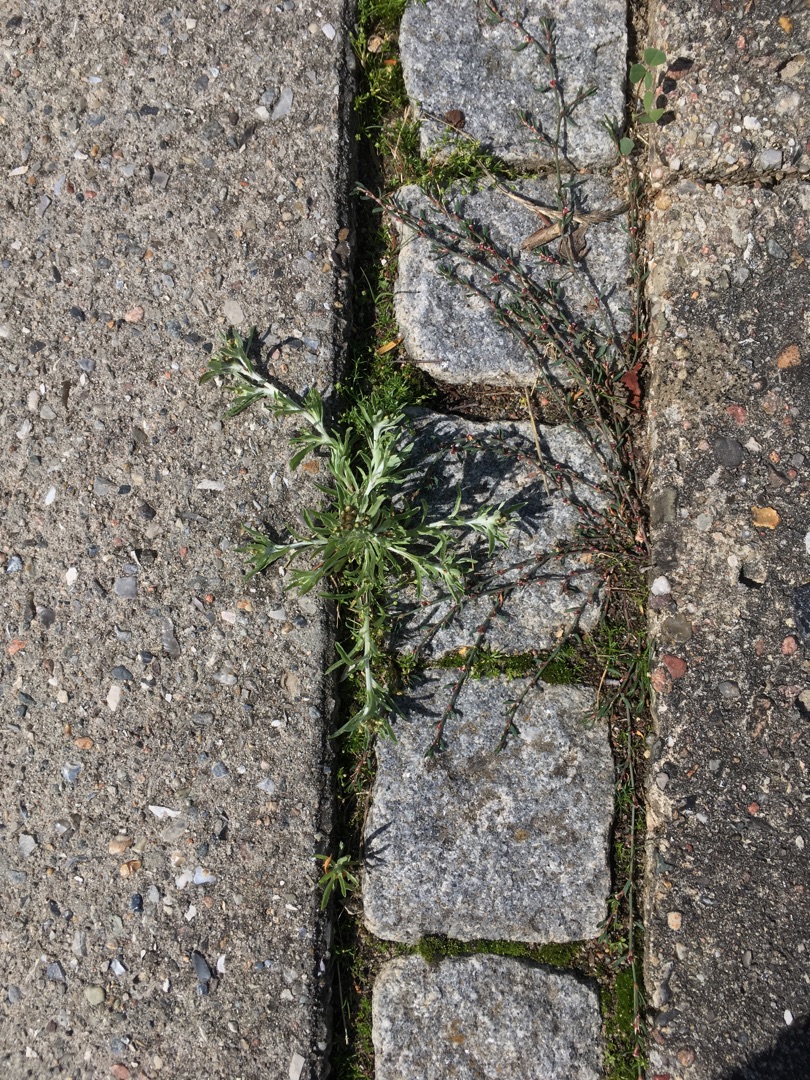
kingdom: Plantae
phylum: Tracheophyta
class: Magnoliopsida
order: Asterales
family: Asteraceae
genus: Gnaphalium
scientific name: Gnaphalium uliginosum
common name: Sump-evighedsblomst
